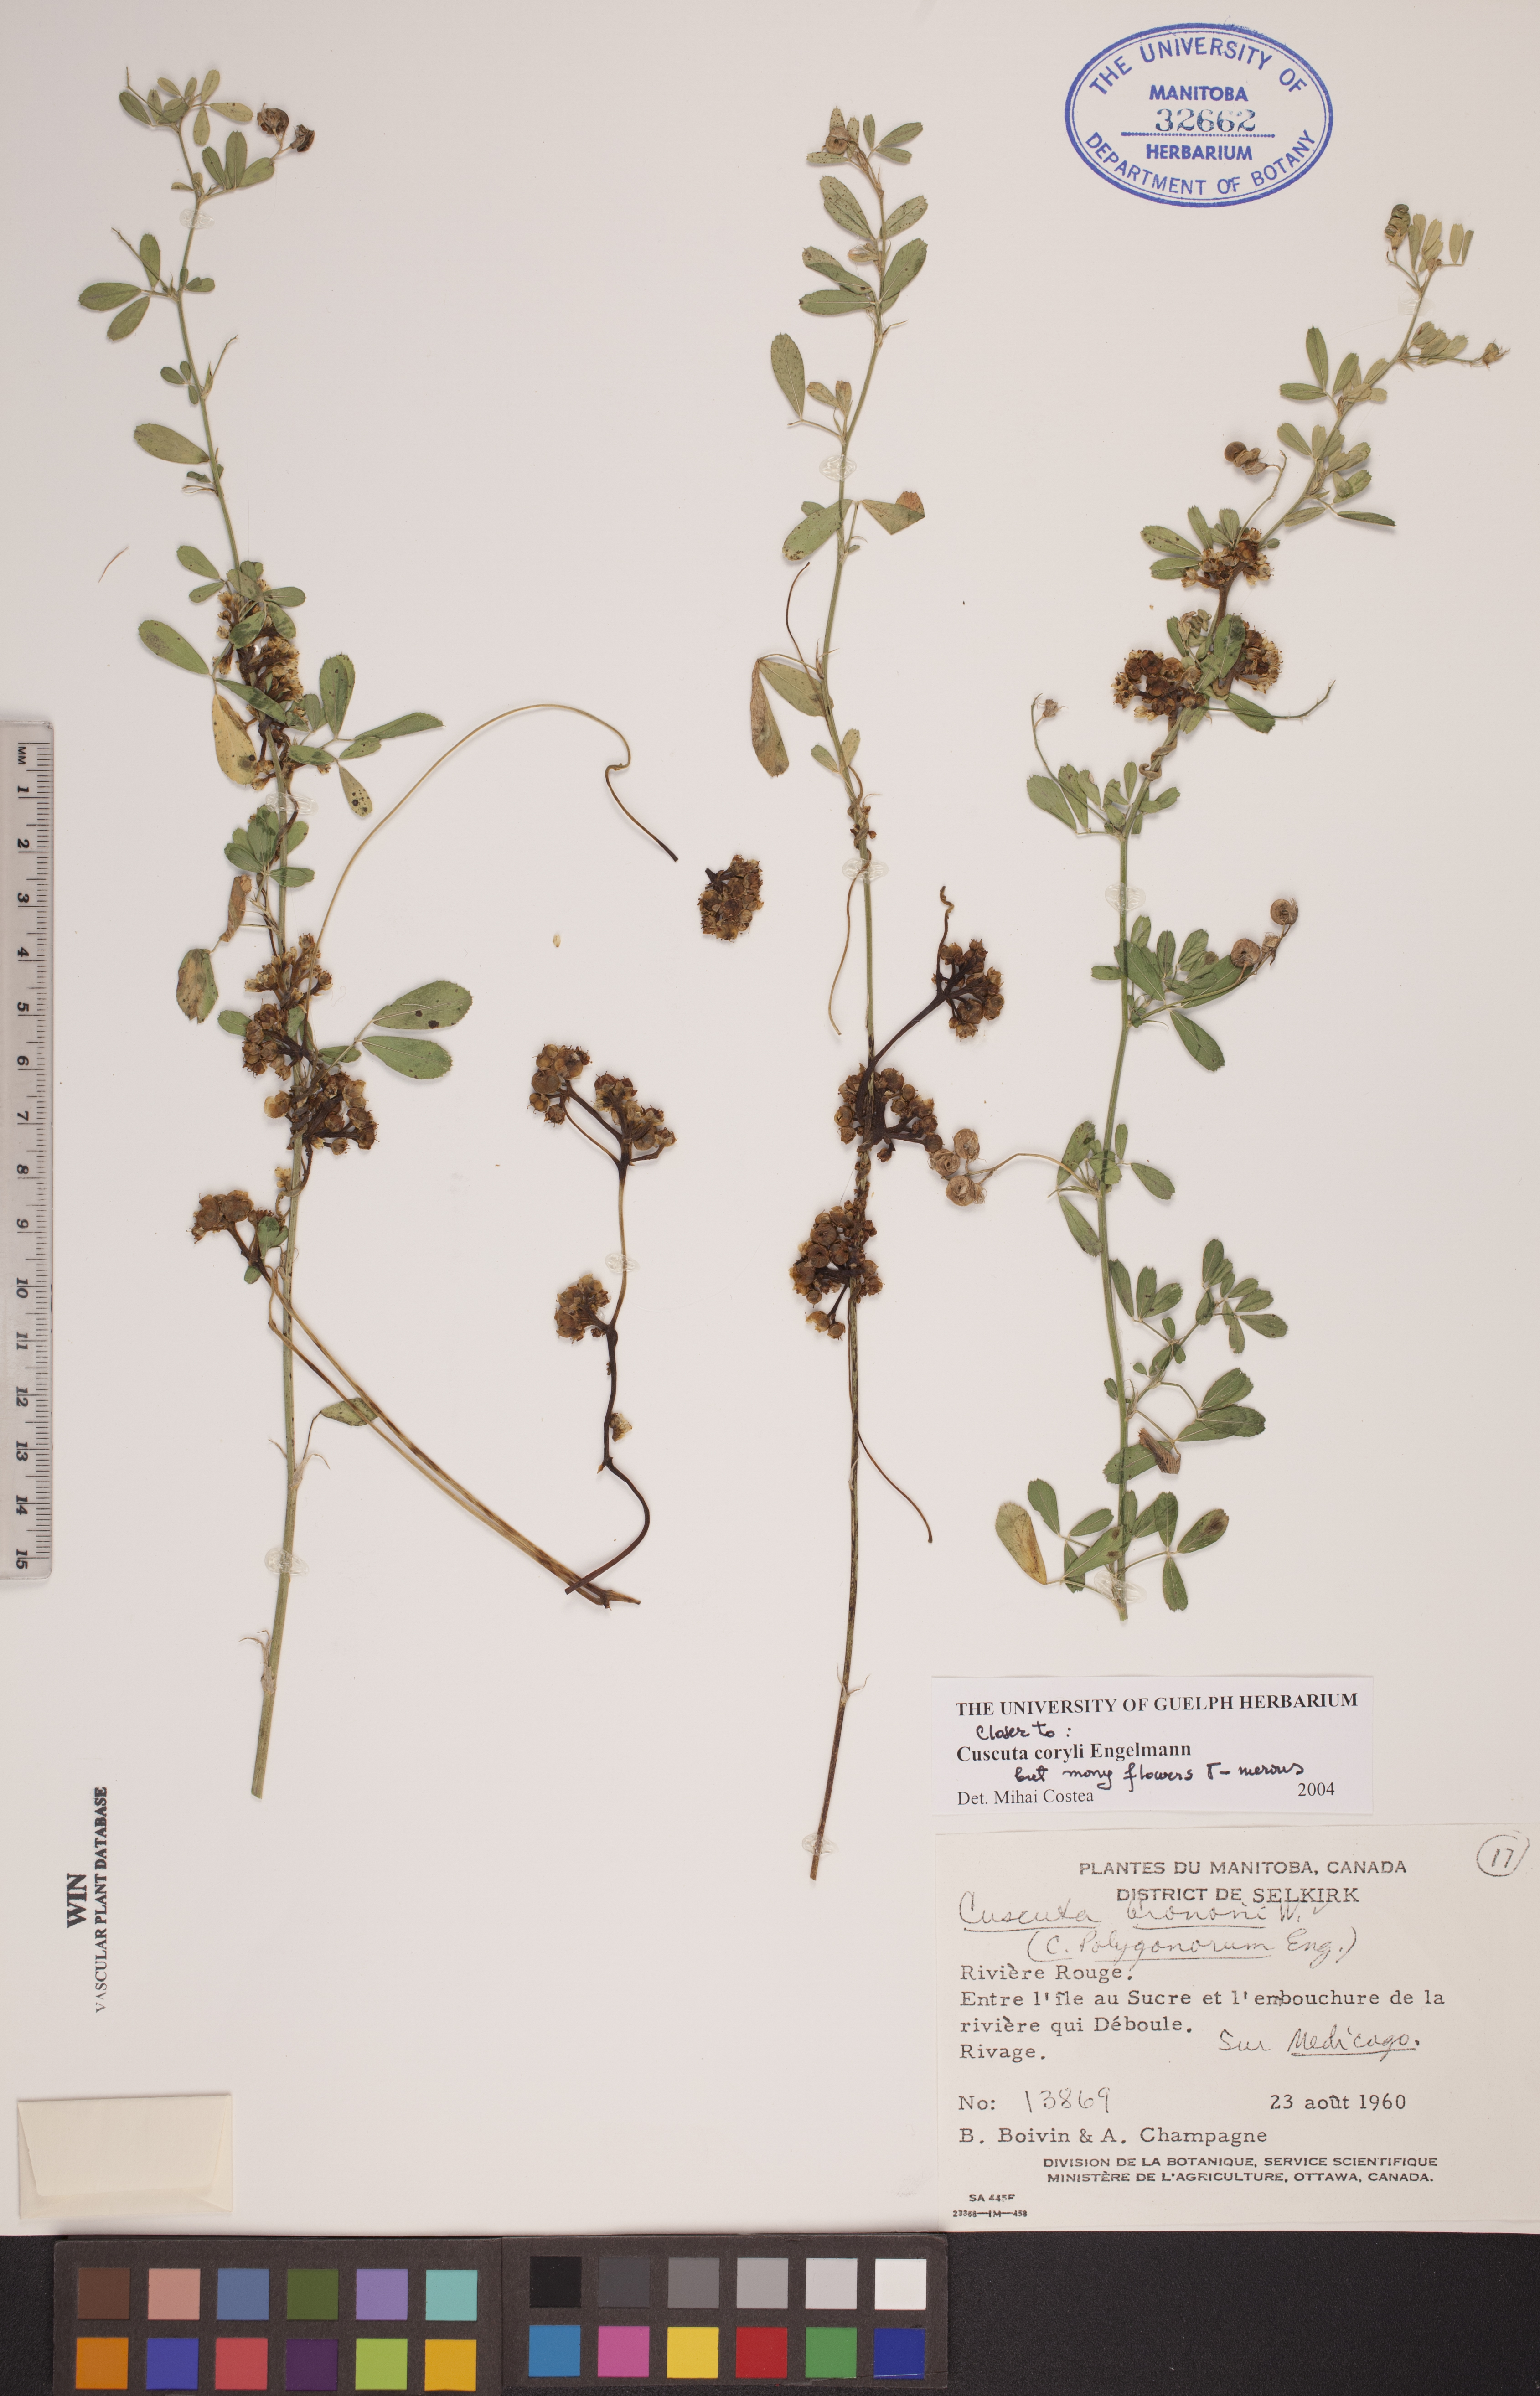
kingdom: Plantae
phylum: Tracheophyta
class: Magnoliopsida
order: Solanales
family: Convolvulaceae
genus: Cuscuta
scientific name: Cuscuta coryli
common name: Hazel dodder
